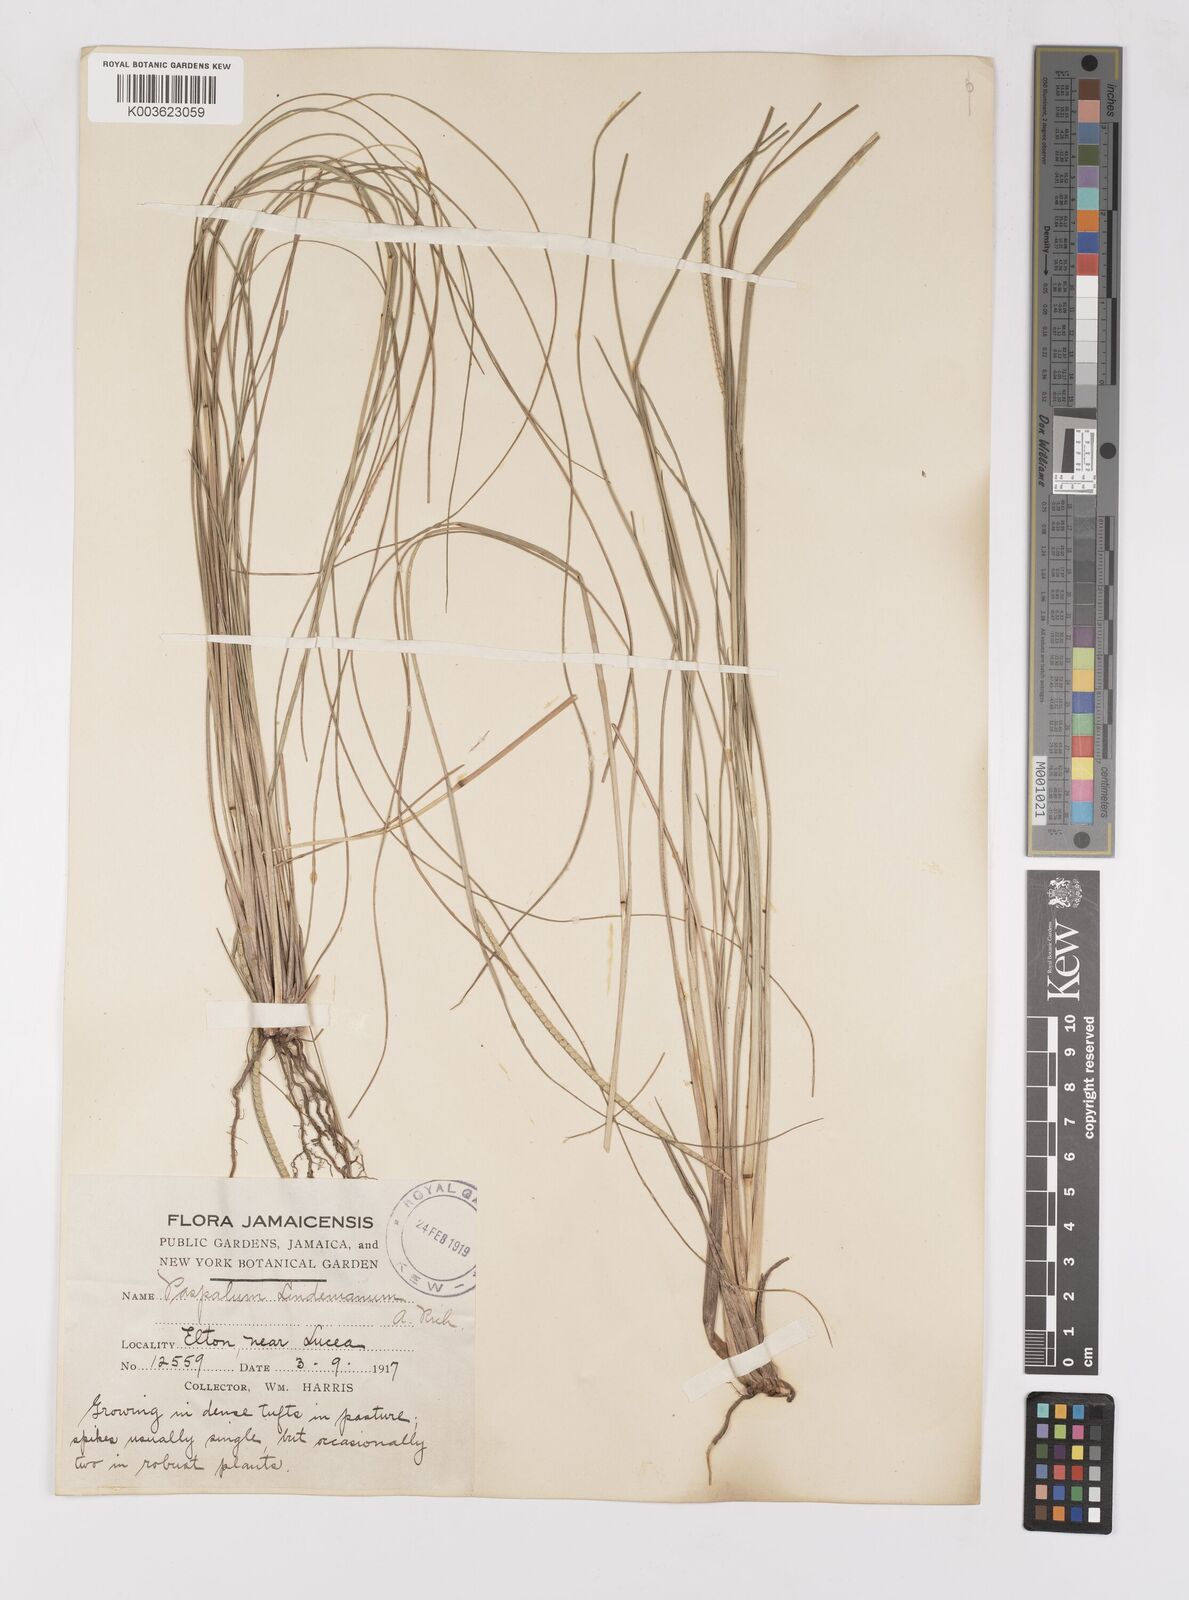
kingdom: Plantae
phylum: Tracheophyta
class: Liliopsida
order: Poales
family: Poaceae
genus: Paspalum
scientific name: Paspalum lindenianum
